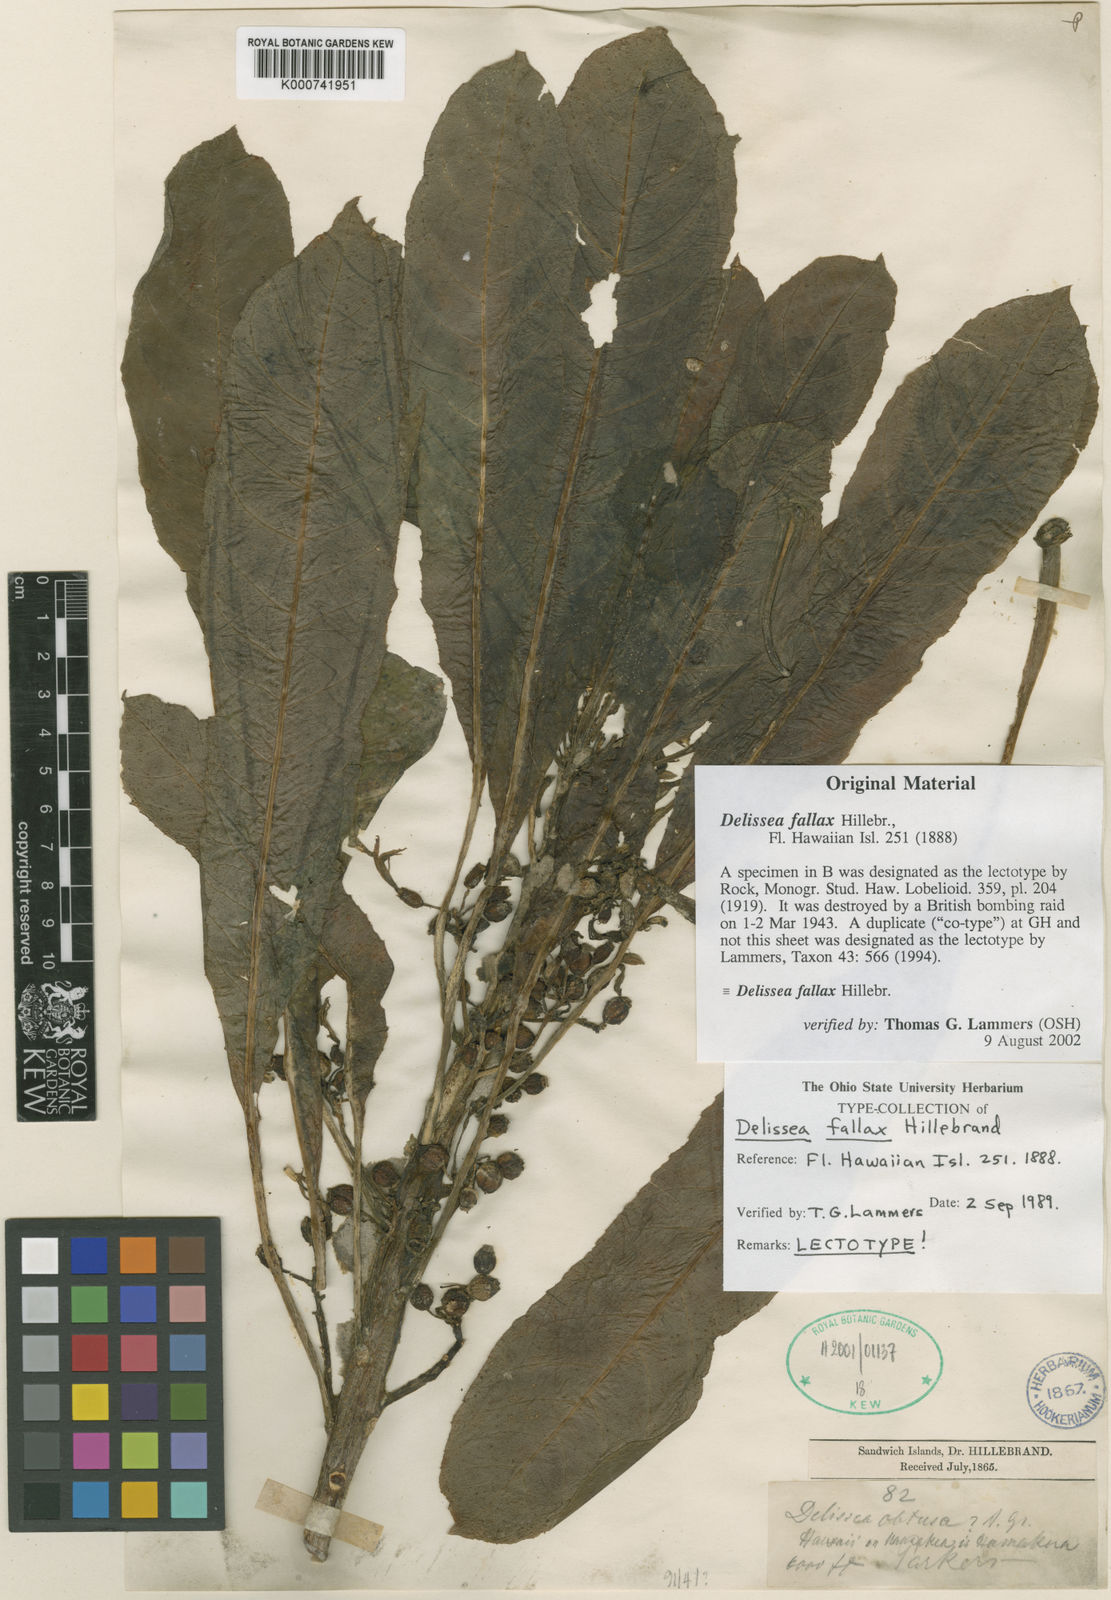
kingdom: Plantae
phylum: Tracheophyta
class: Magnoliopsida
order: Asterales
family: Campanulaceae
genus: Delissea
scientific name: Delissea fallax
